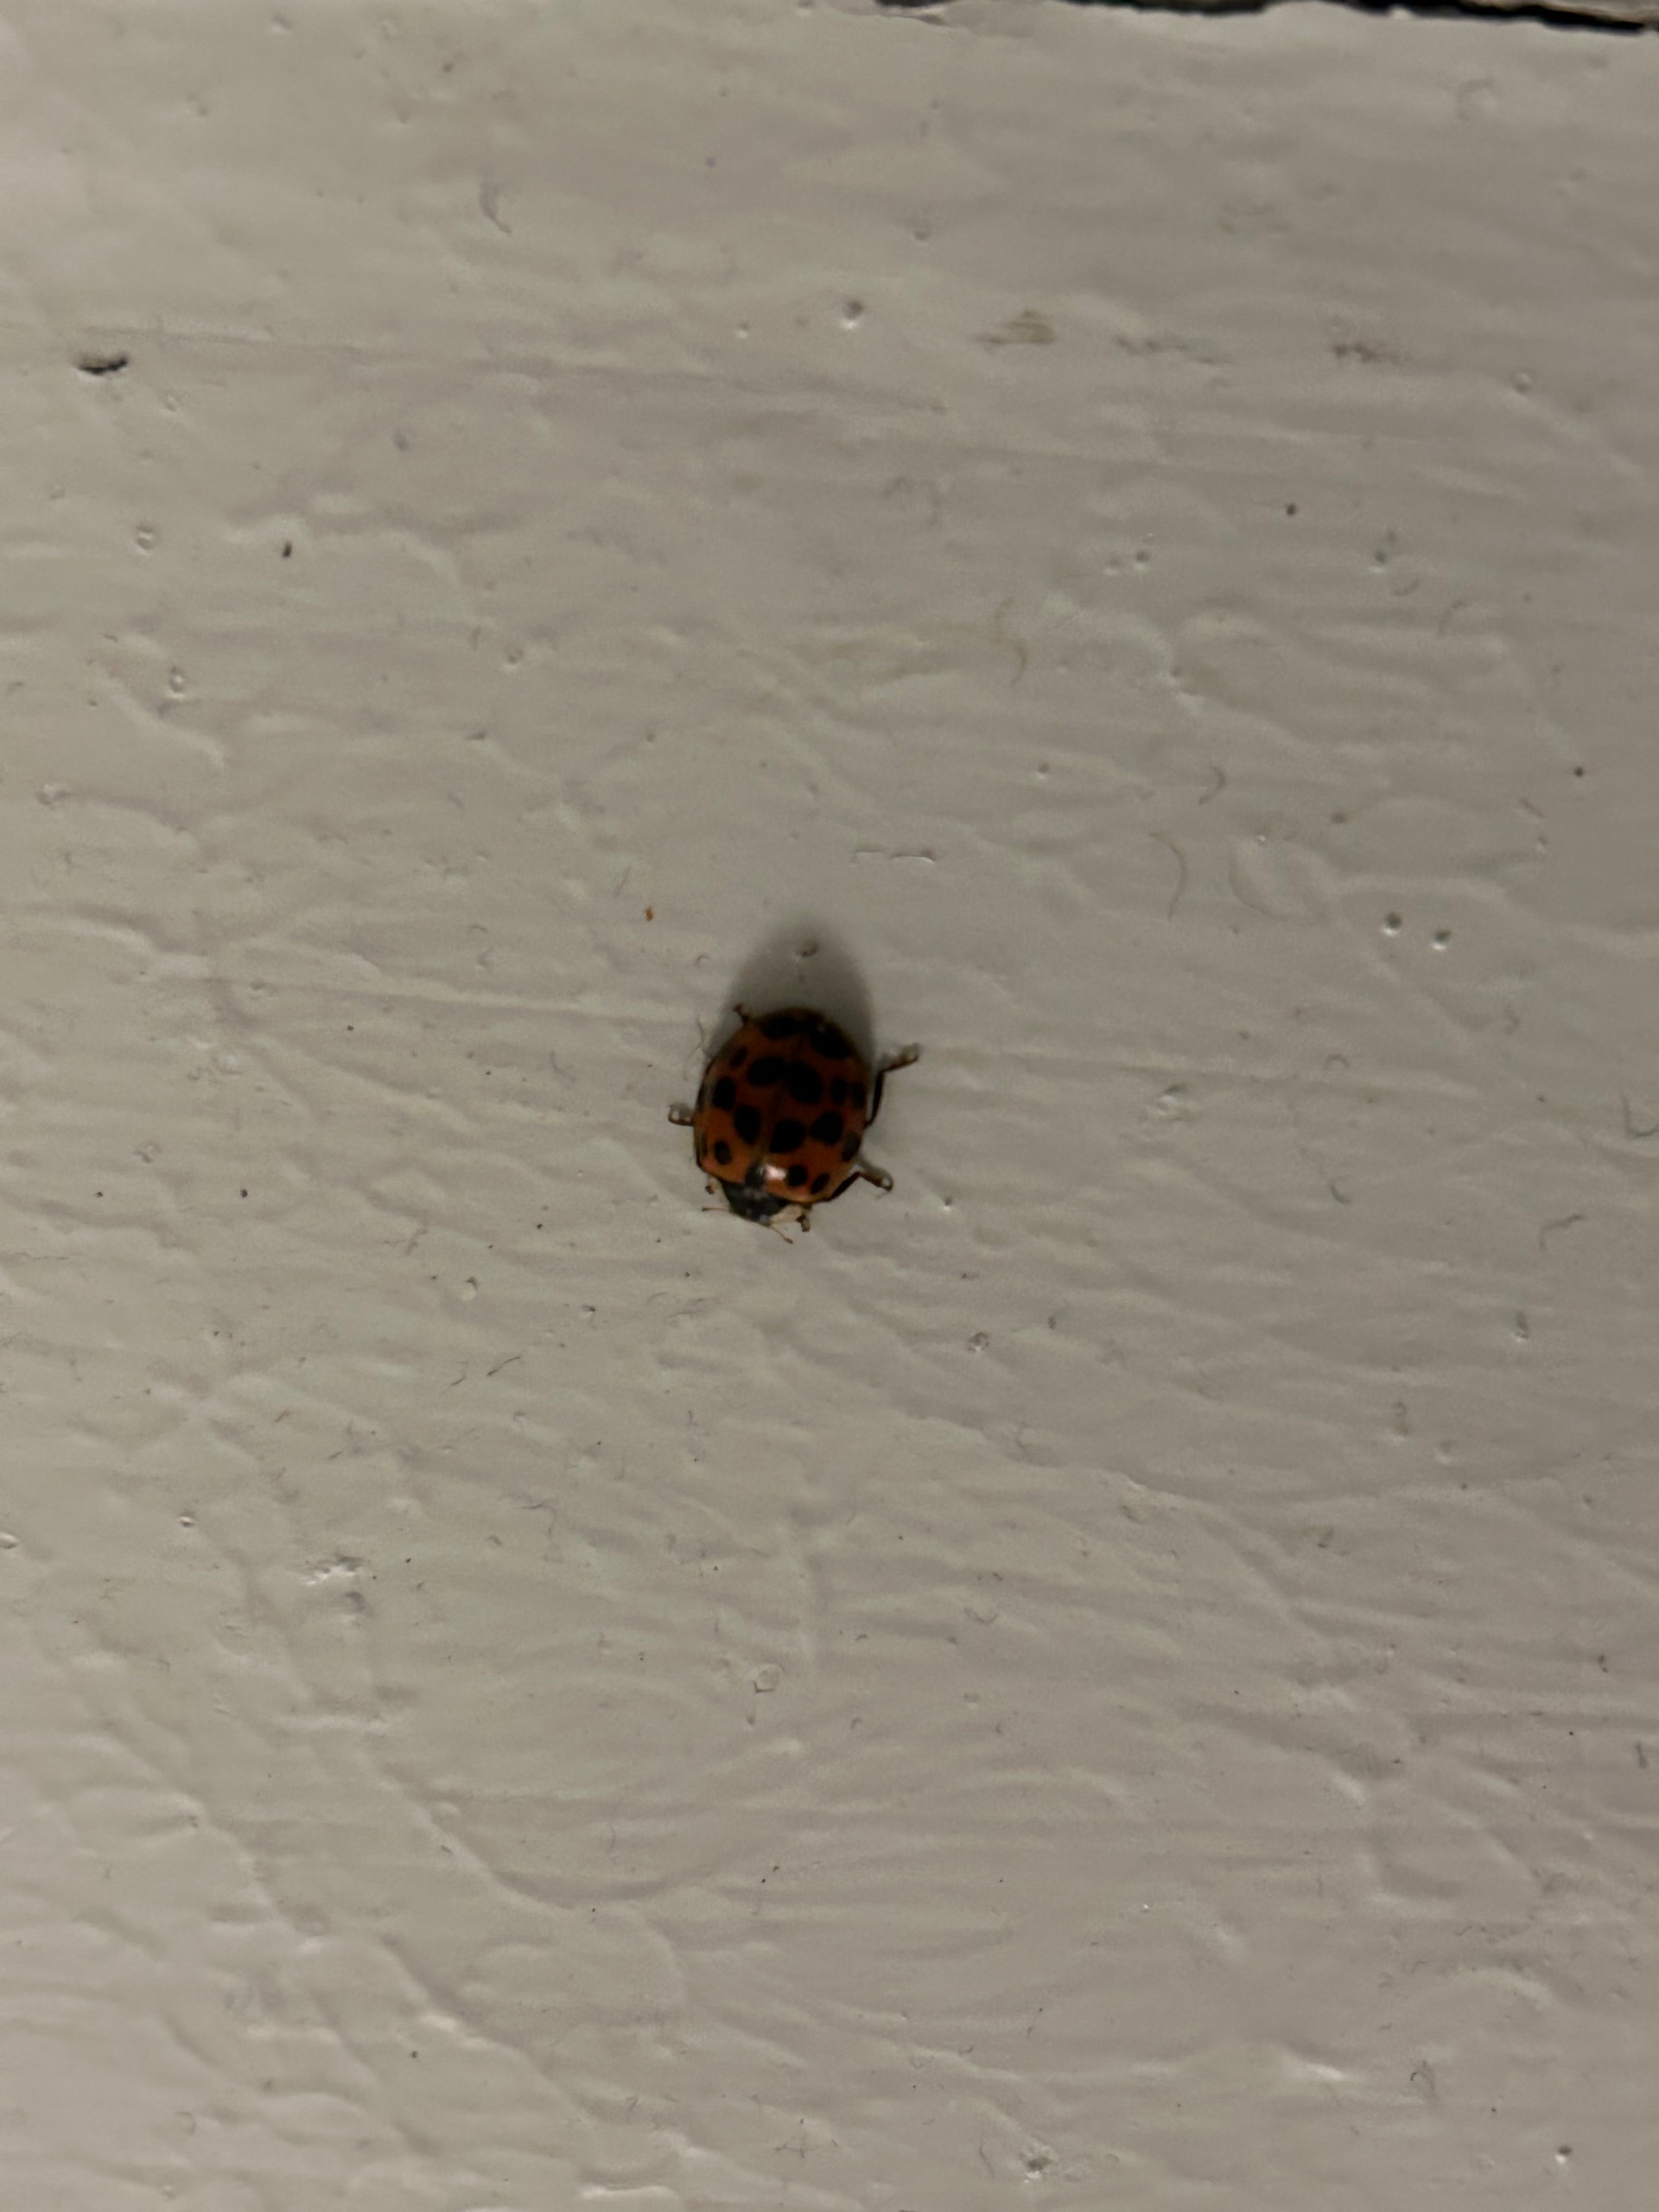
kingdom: Animalia
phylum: Arthropoda
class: Insecta
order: Coleoptera
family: Coccinellidae
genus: Harmonia
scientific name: Harmonia axyridis
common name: Harlekinmariehøne
